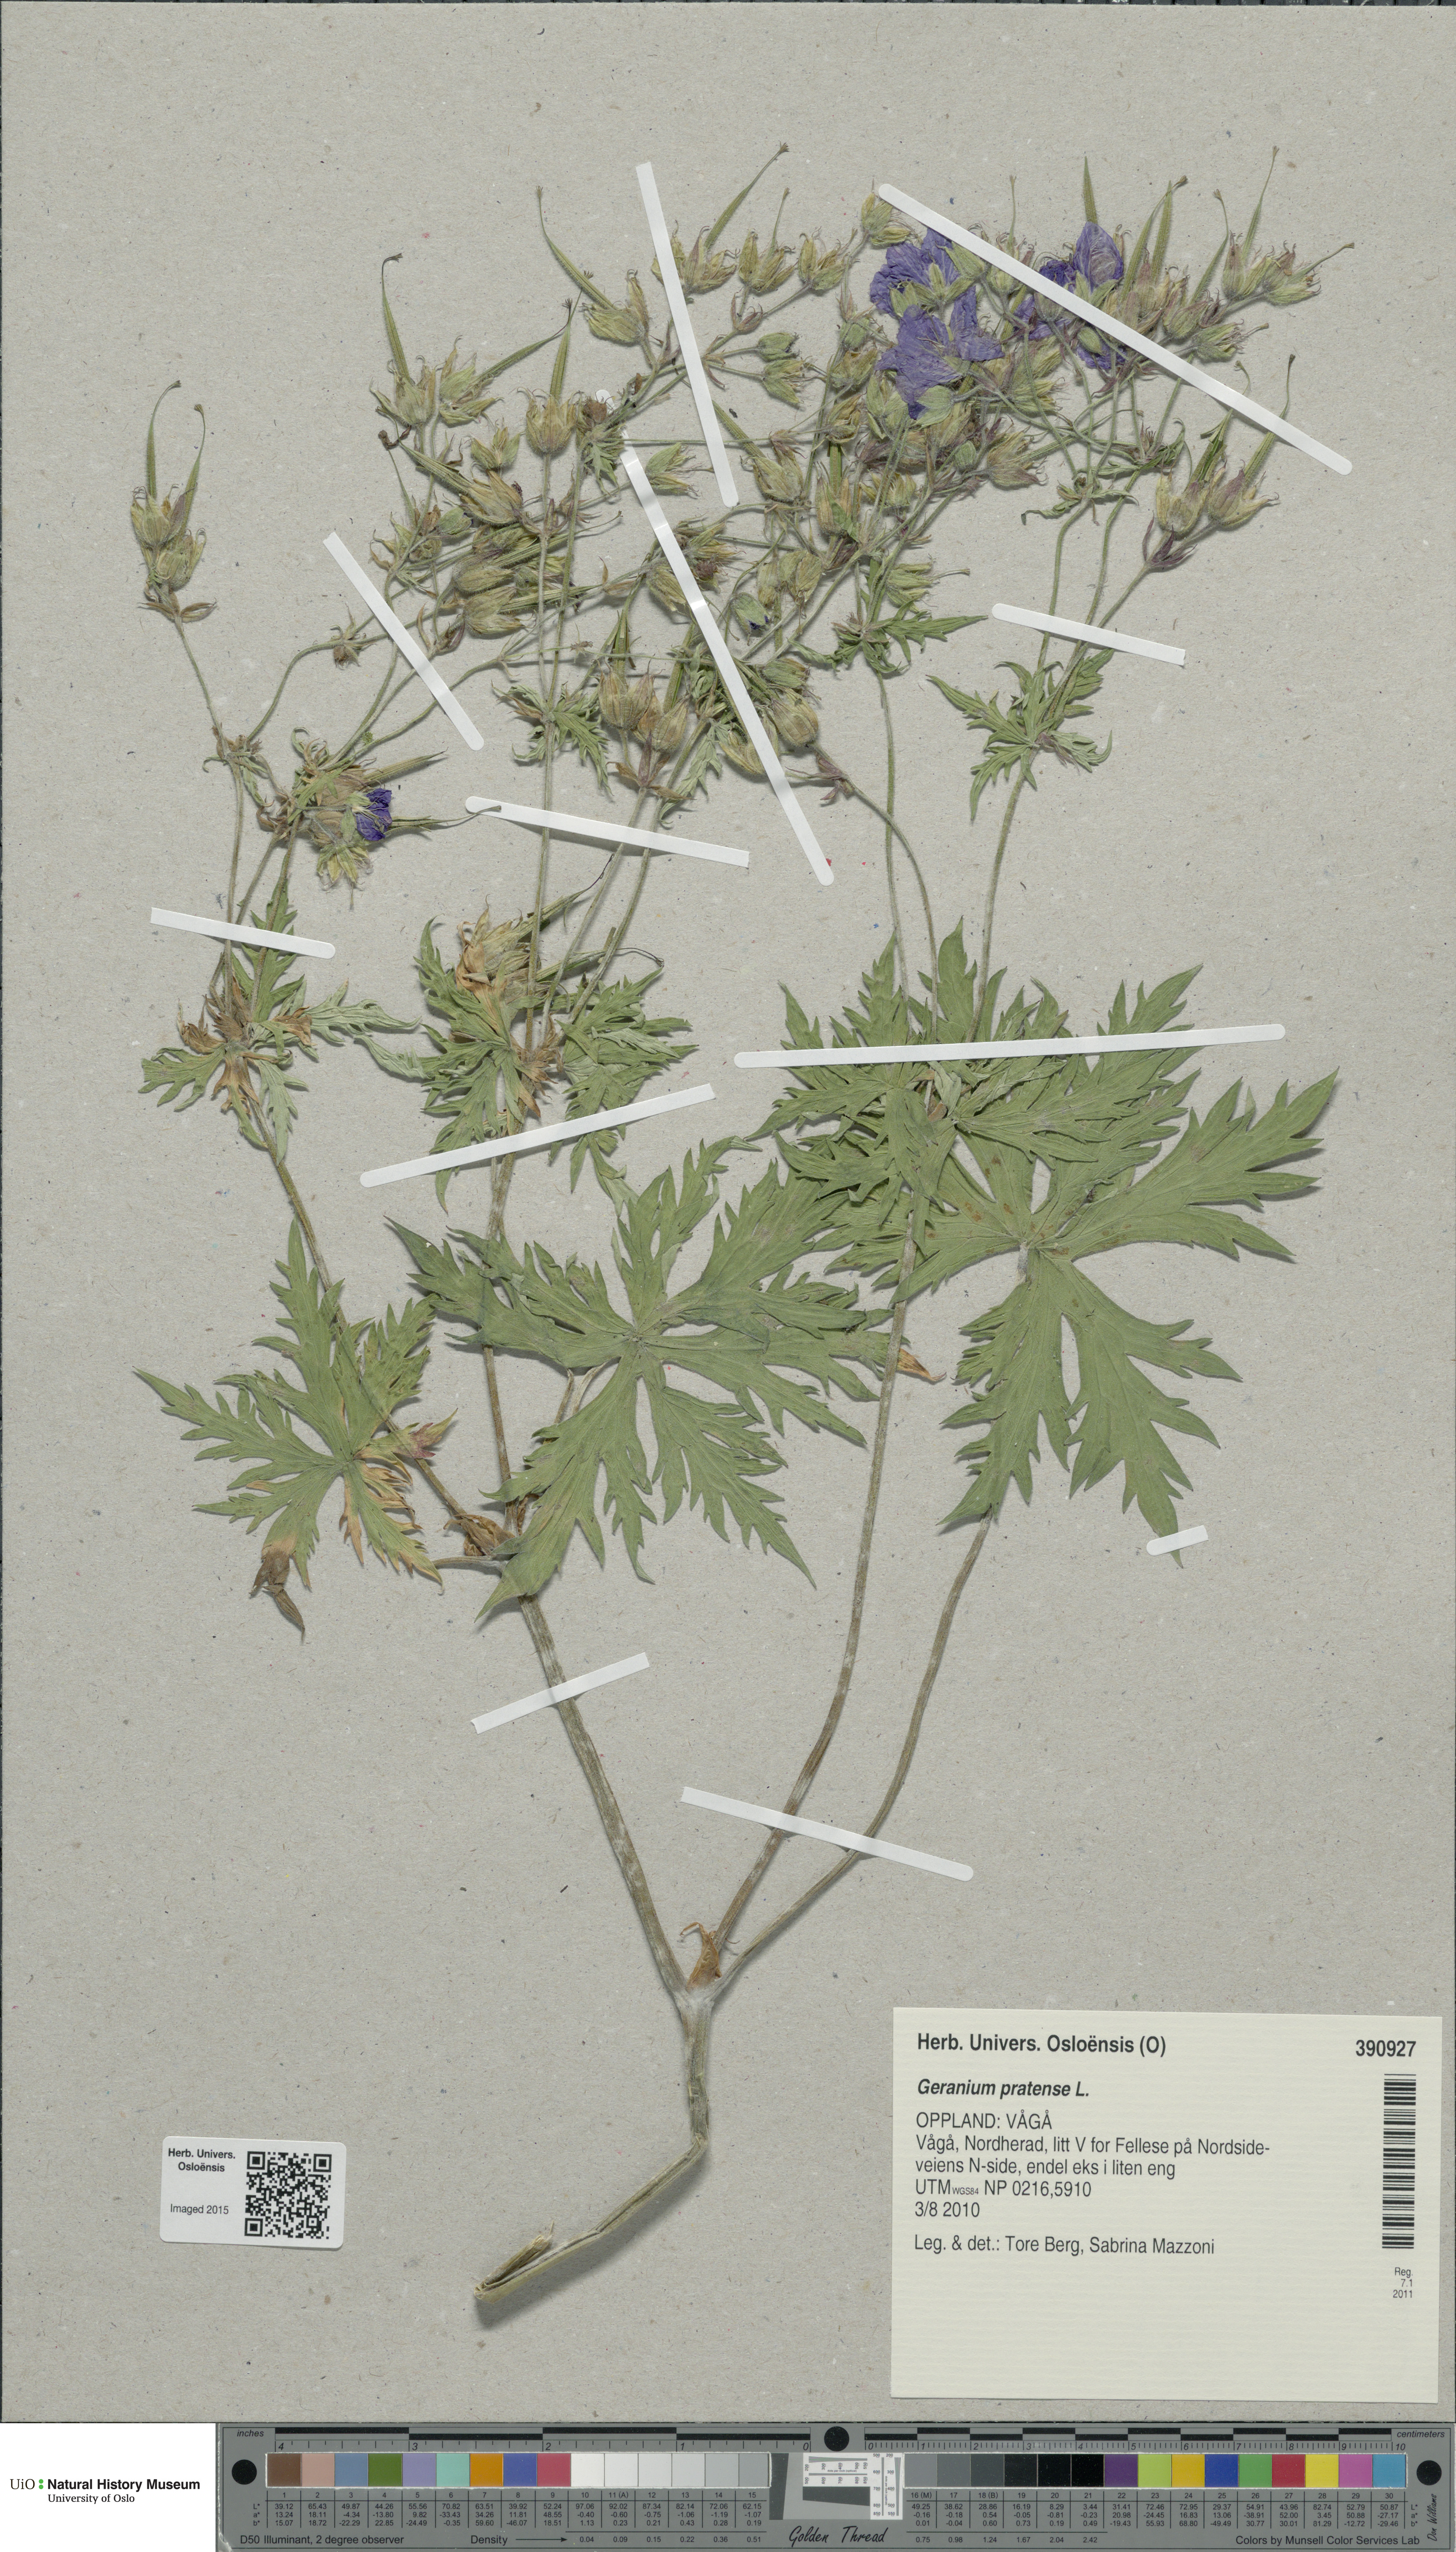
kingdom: Plantae
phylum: Tracheophyta
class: Magnoliopsida
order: Geraniales
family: Geraniaceae
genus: Geranium
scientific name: Geranium pratense
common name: Meadow crane's-bill
